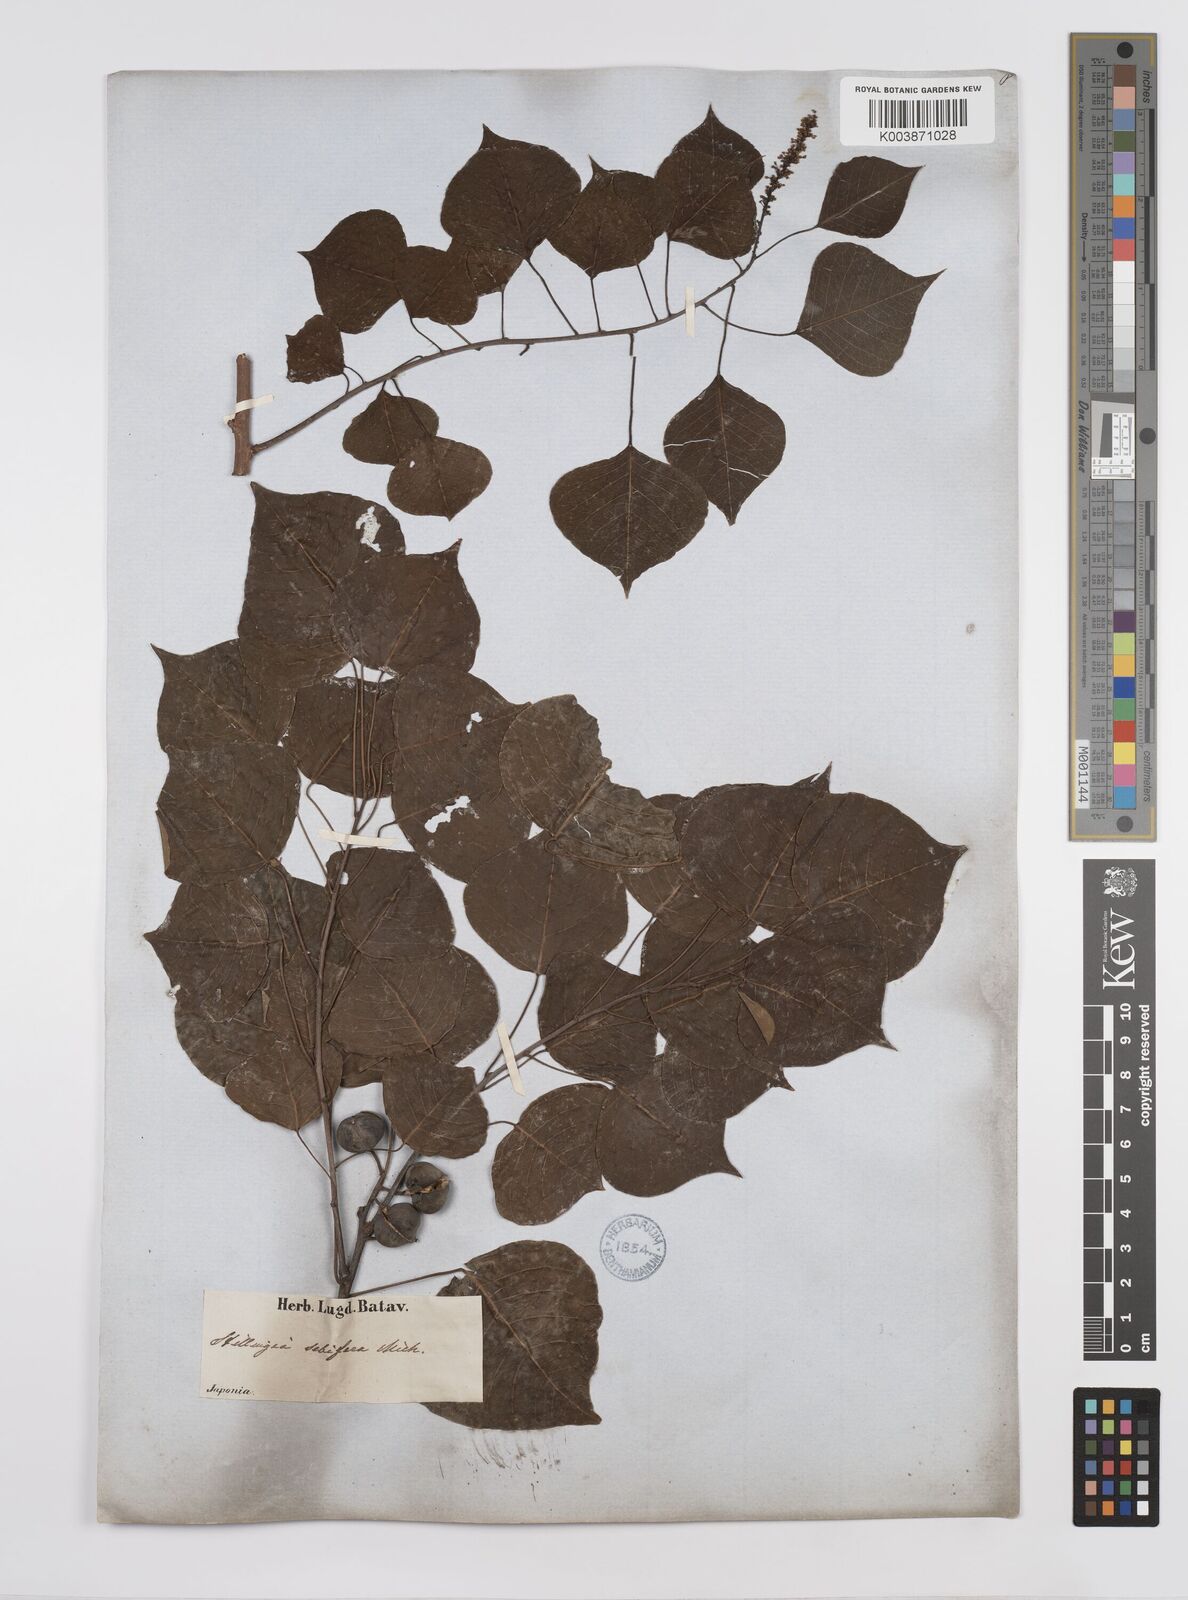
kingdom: Plantae
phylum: Tracheophyta
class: Magnoliopsida
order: Malpighiales
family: Euphorbiaceae
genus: Triadica
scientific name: Triadica sebifera
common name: Chinese tallow
